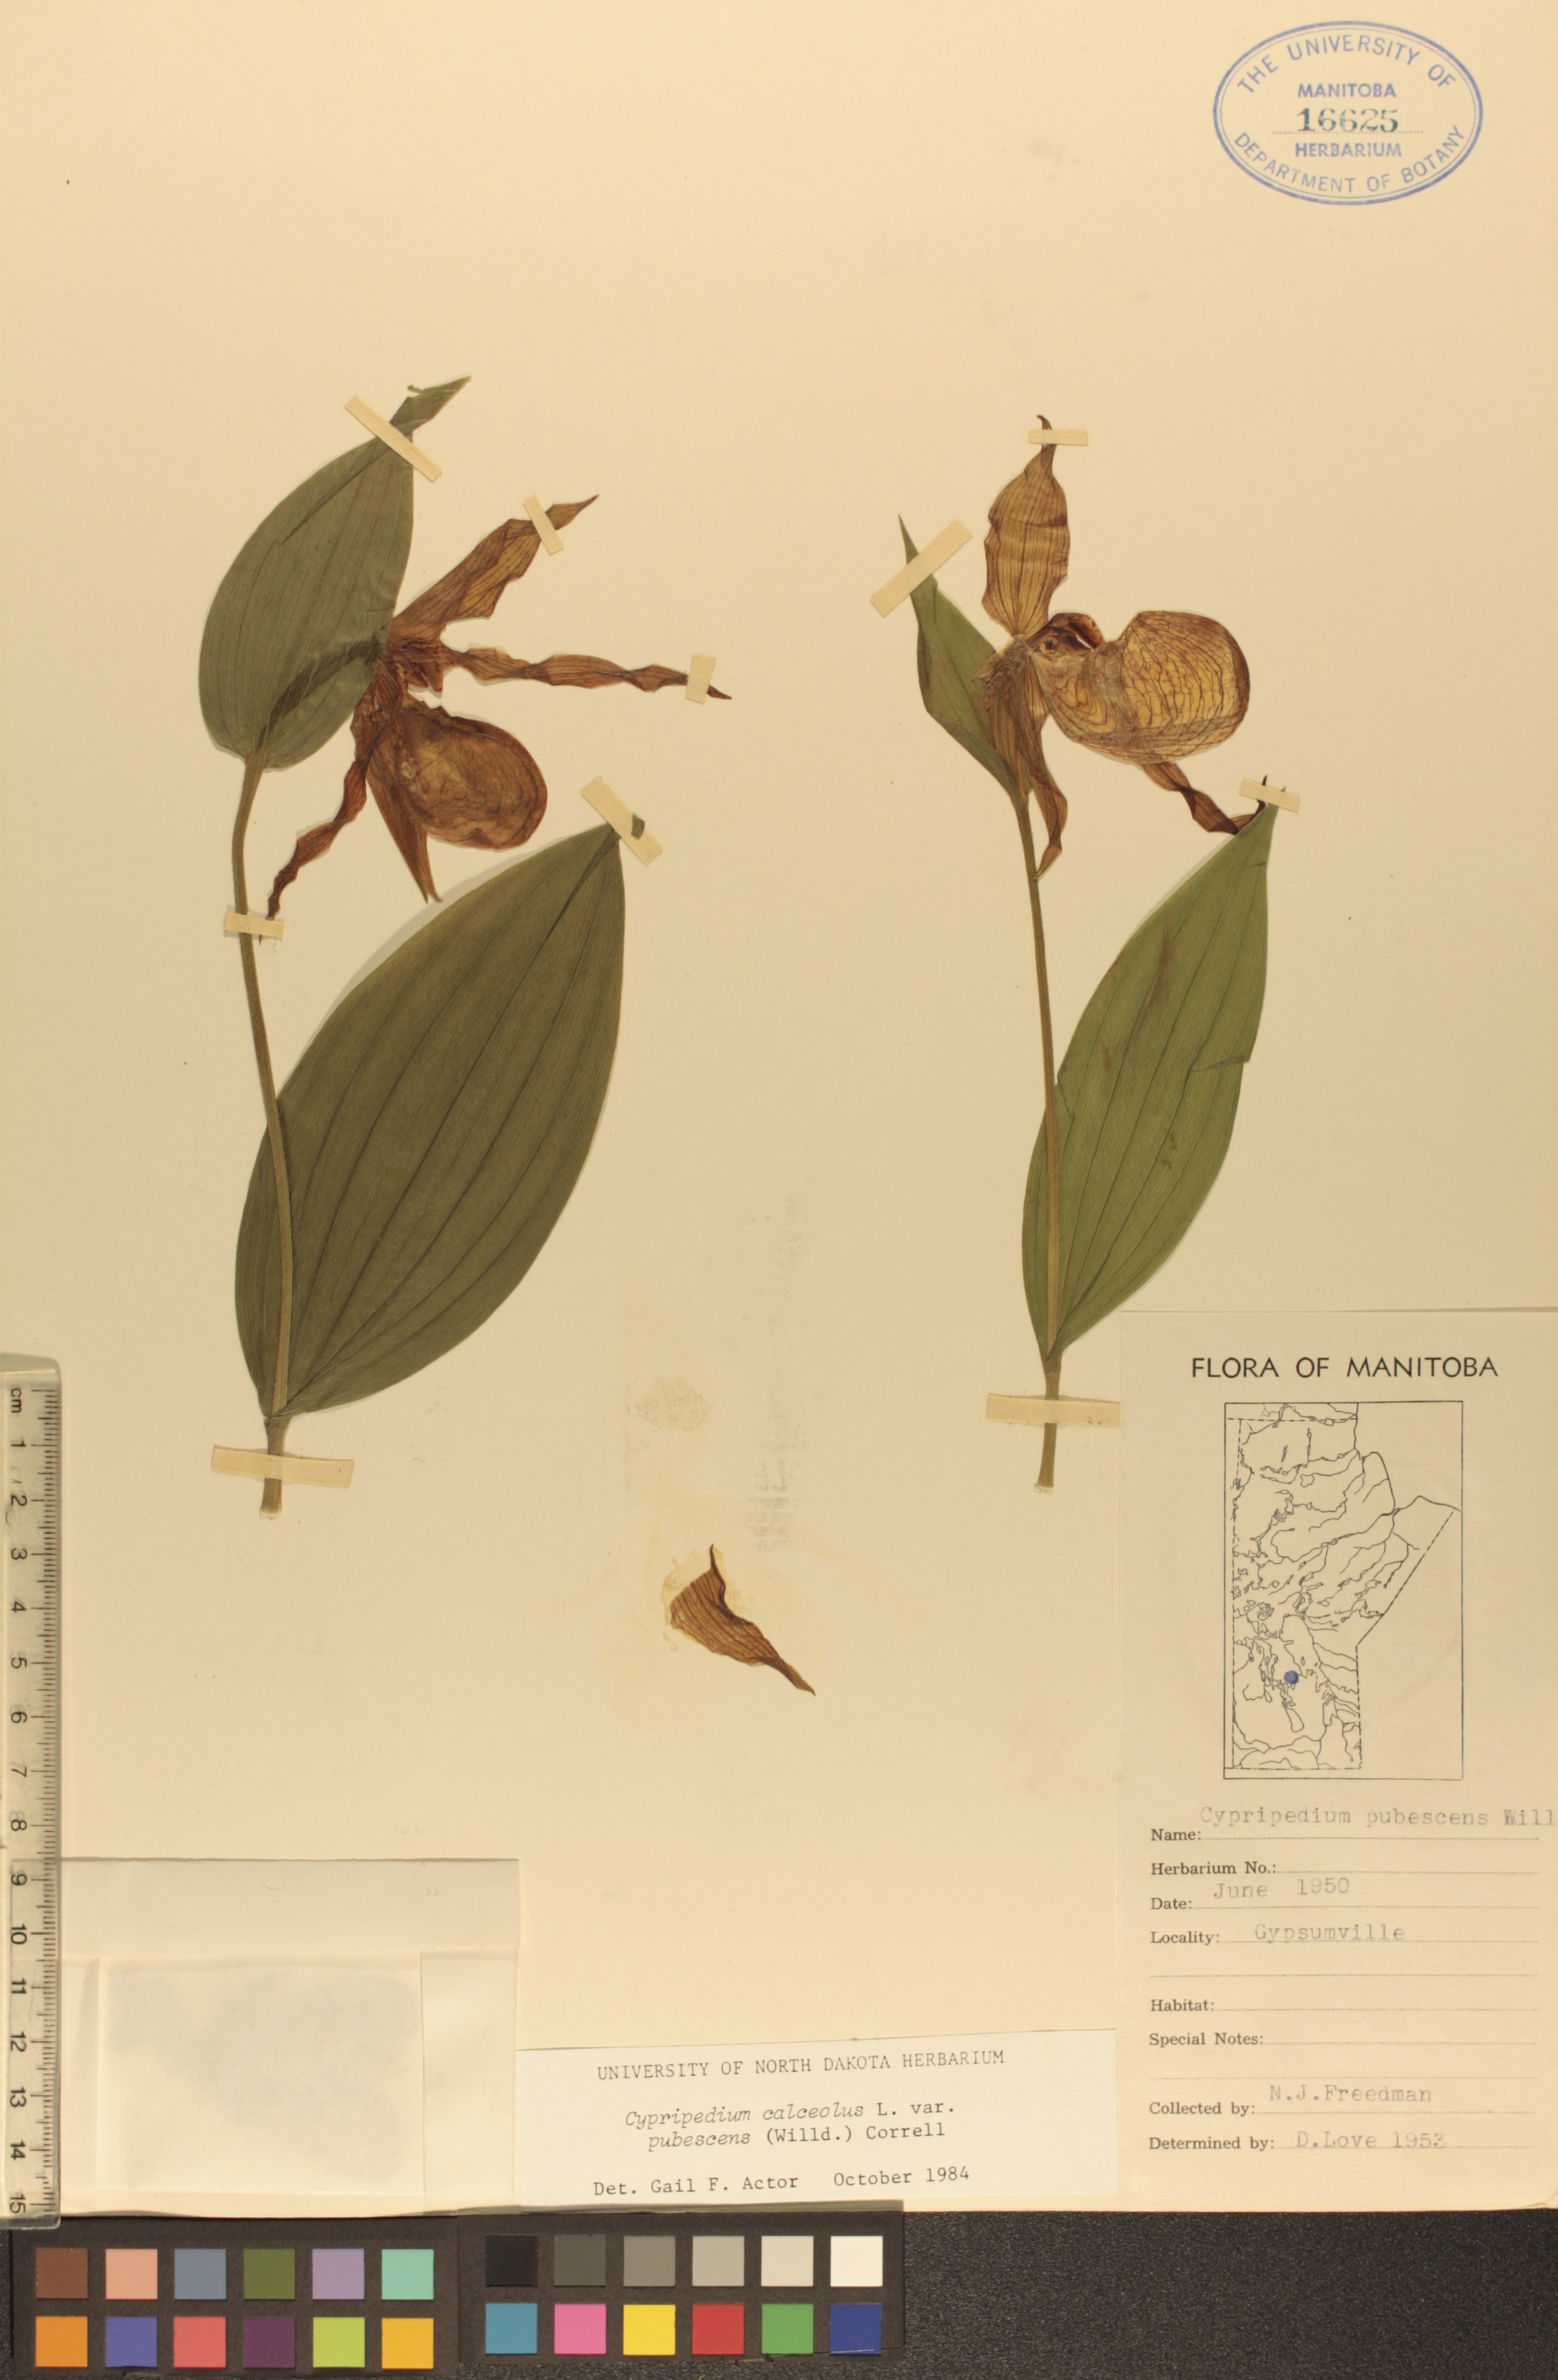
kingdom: Plantae
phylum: Tracheophyta
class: Liliopsida
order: Asparagales
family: Orchidaceae
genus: Cypripedium
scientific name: Cypripedium parviflorum
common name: American yellow lady's-slipper
